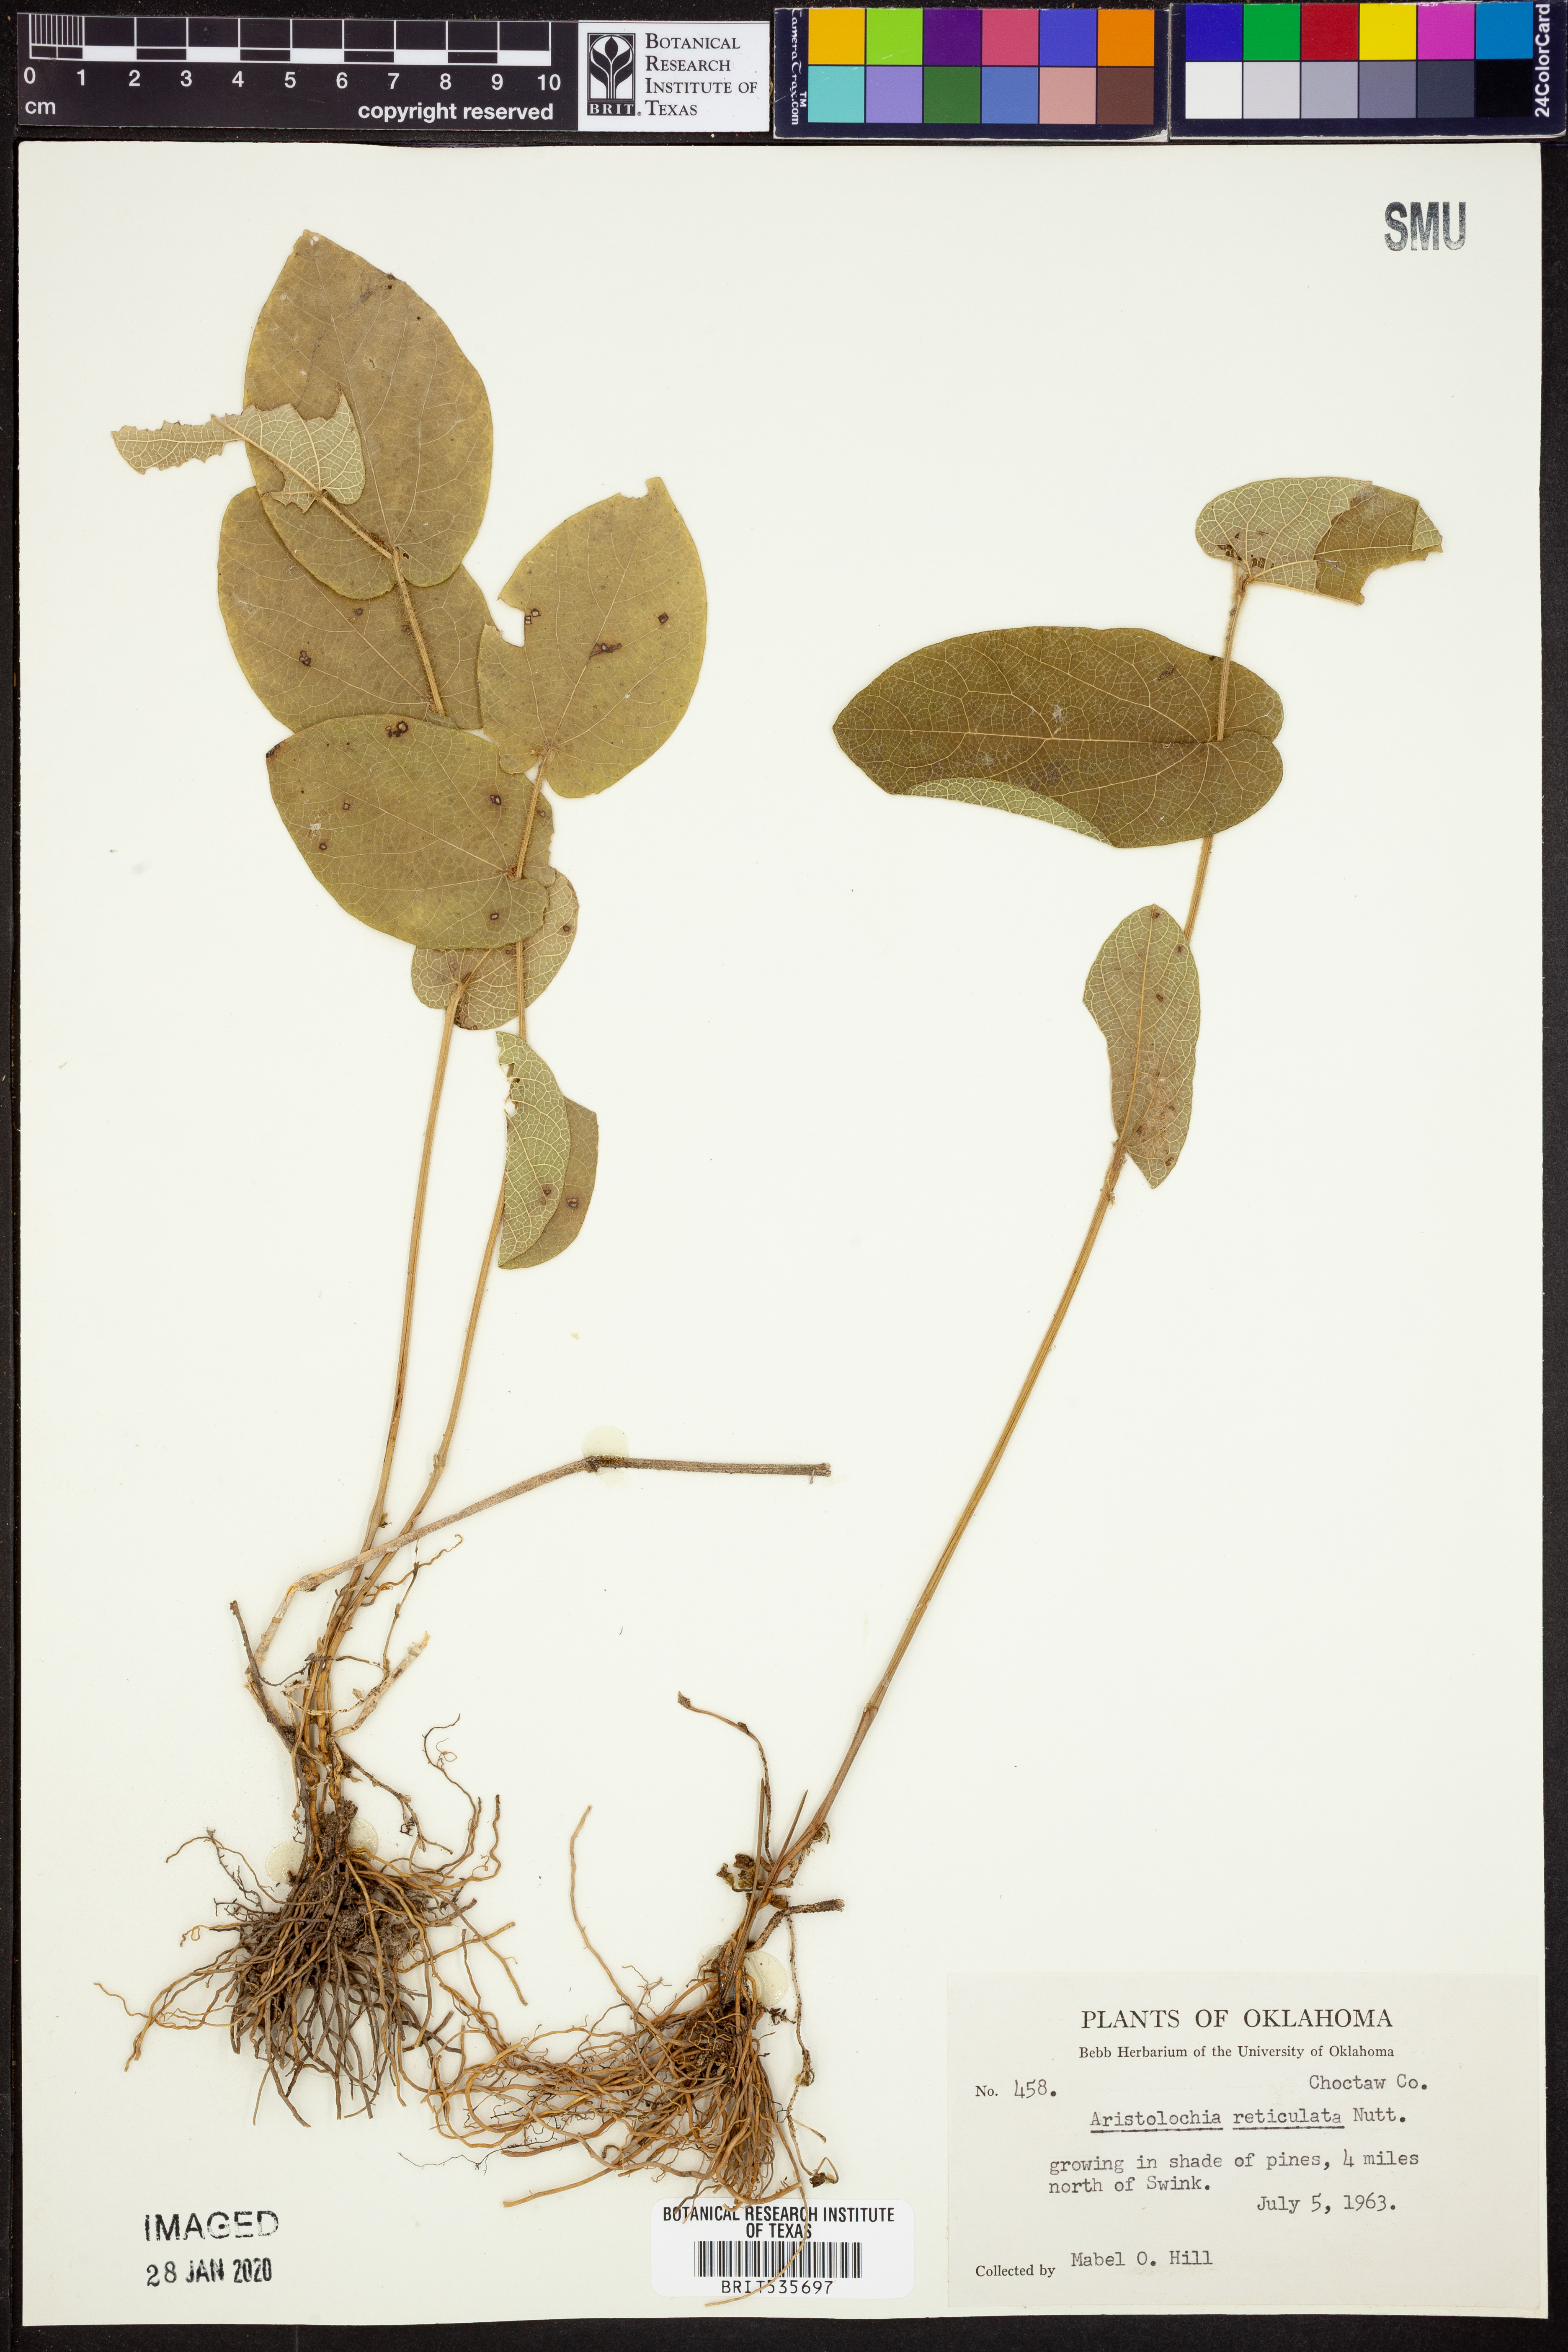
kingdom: Plantae
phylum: Tracheophyta
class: Magnoliopsida
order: Piperales
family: Aristolochiaceae
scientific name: Aristolochiaceae
